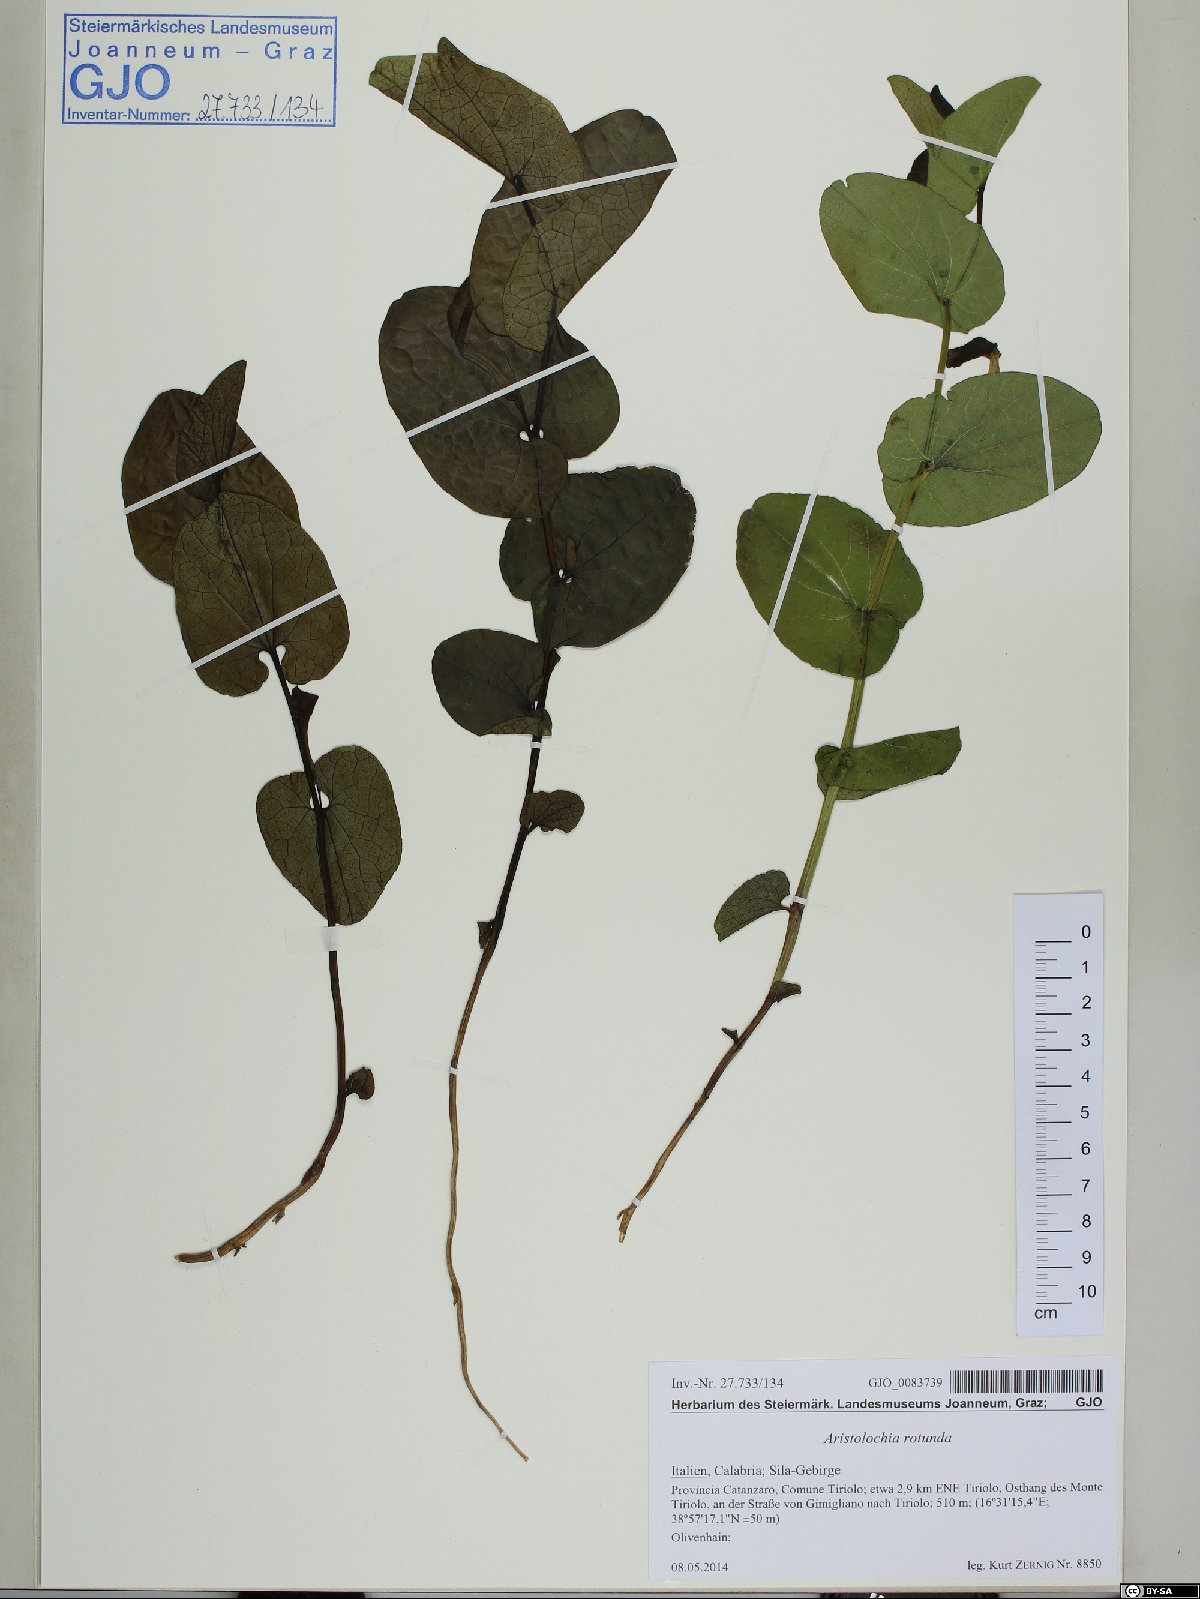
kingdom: Plantae
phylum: Tracheophyta
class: Magnoliopsida
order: Piperales
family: Aristolochiaceae
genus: Aristolochia
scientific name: Aristolochia rotunda
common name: Smearwort
